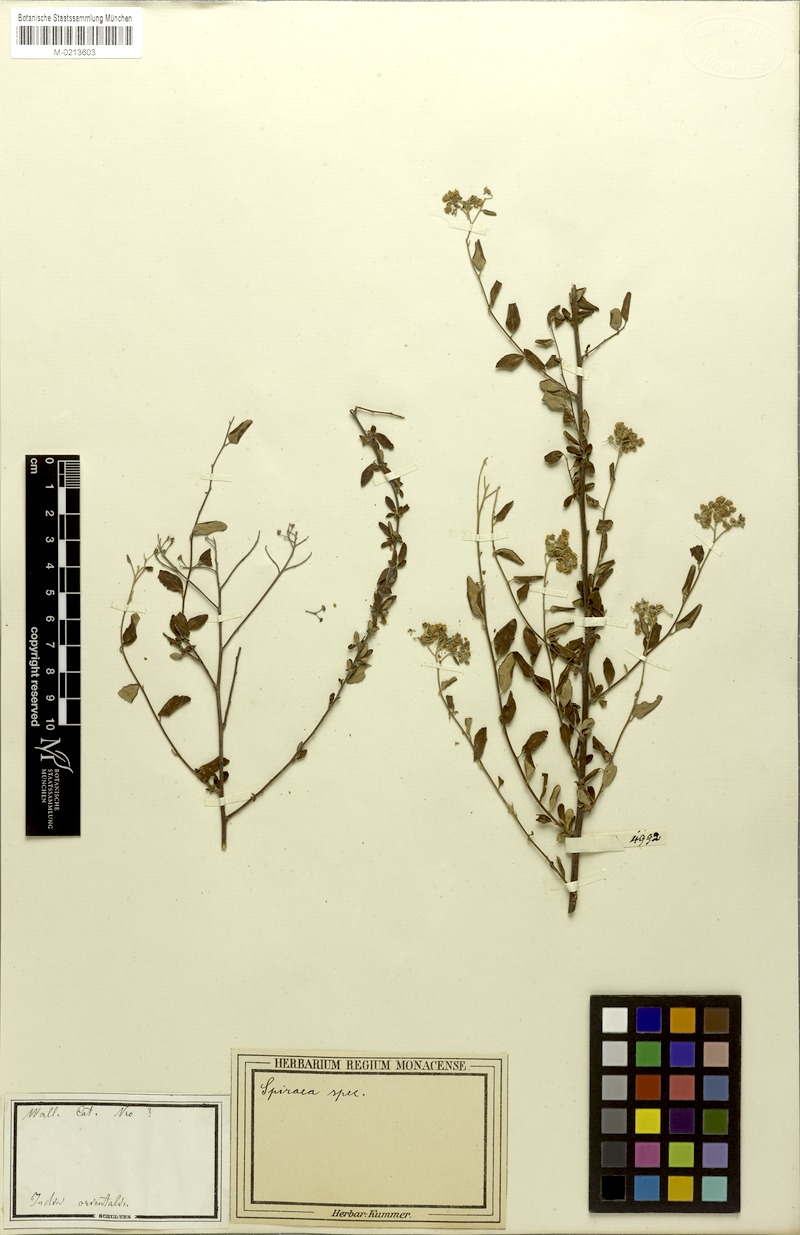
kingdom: Plantae
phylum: Tracheophyta
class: Magnoliopsida
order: Rosales
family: Rosaceae
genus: Spiraea
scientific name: Spiraea
